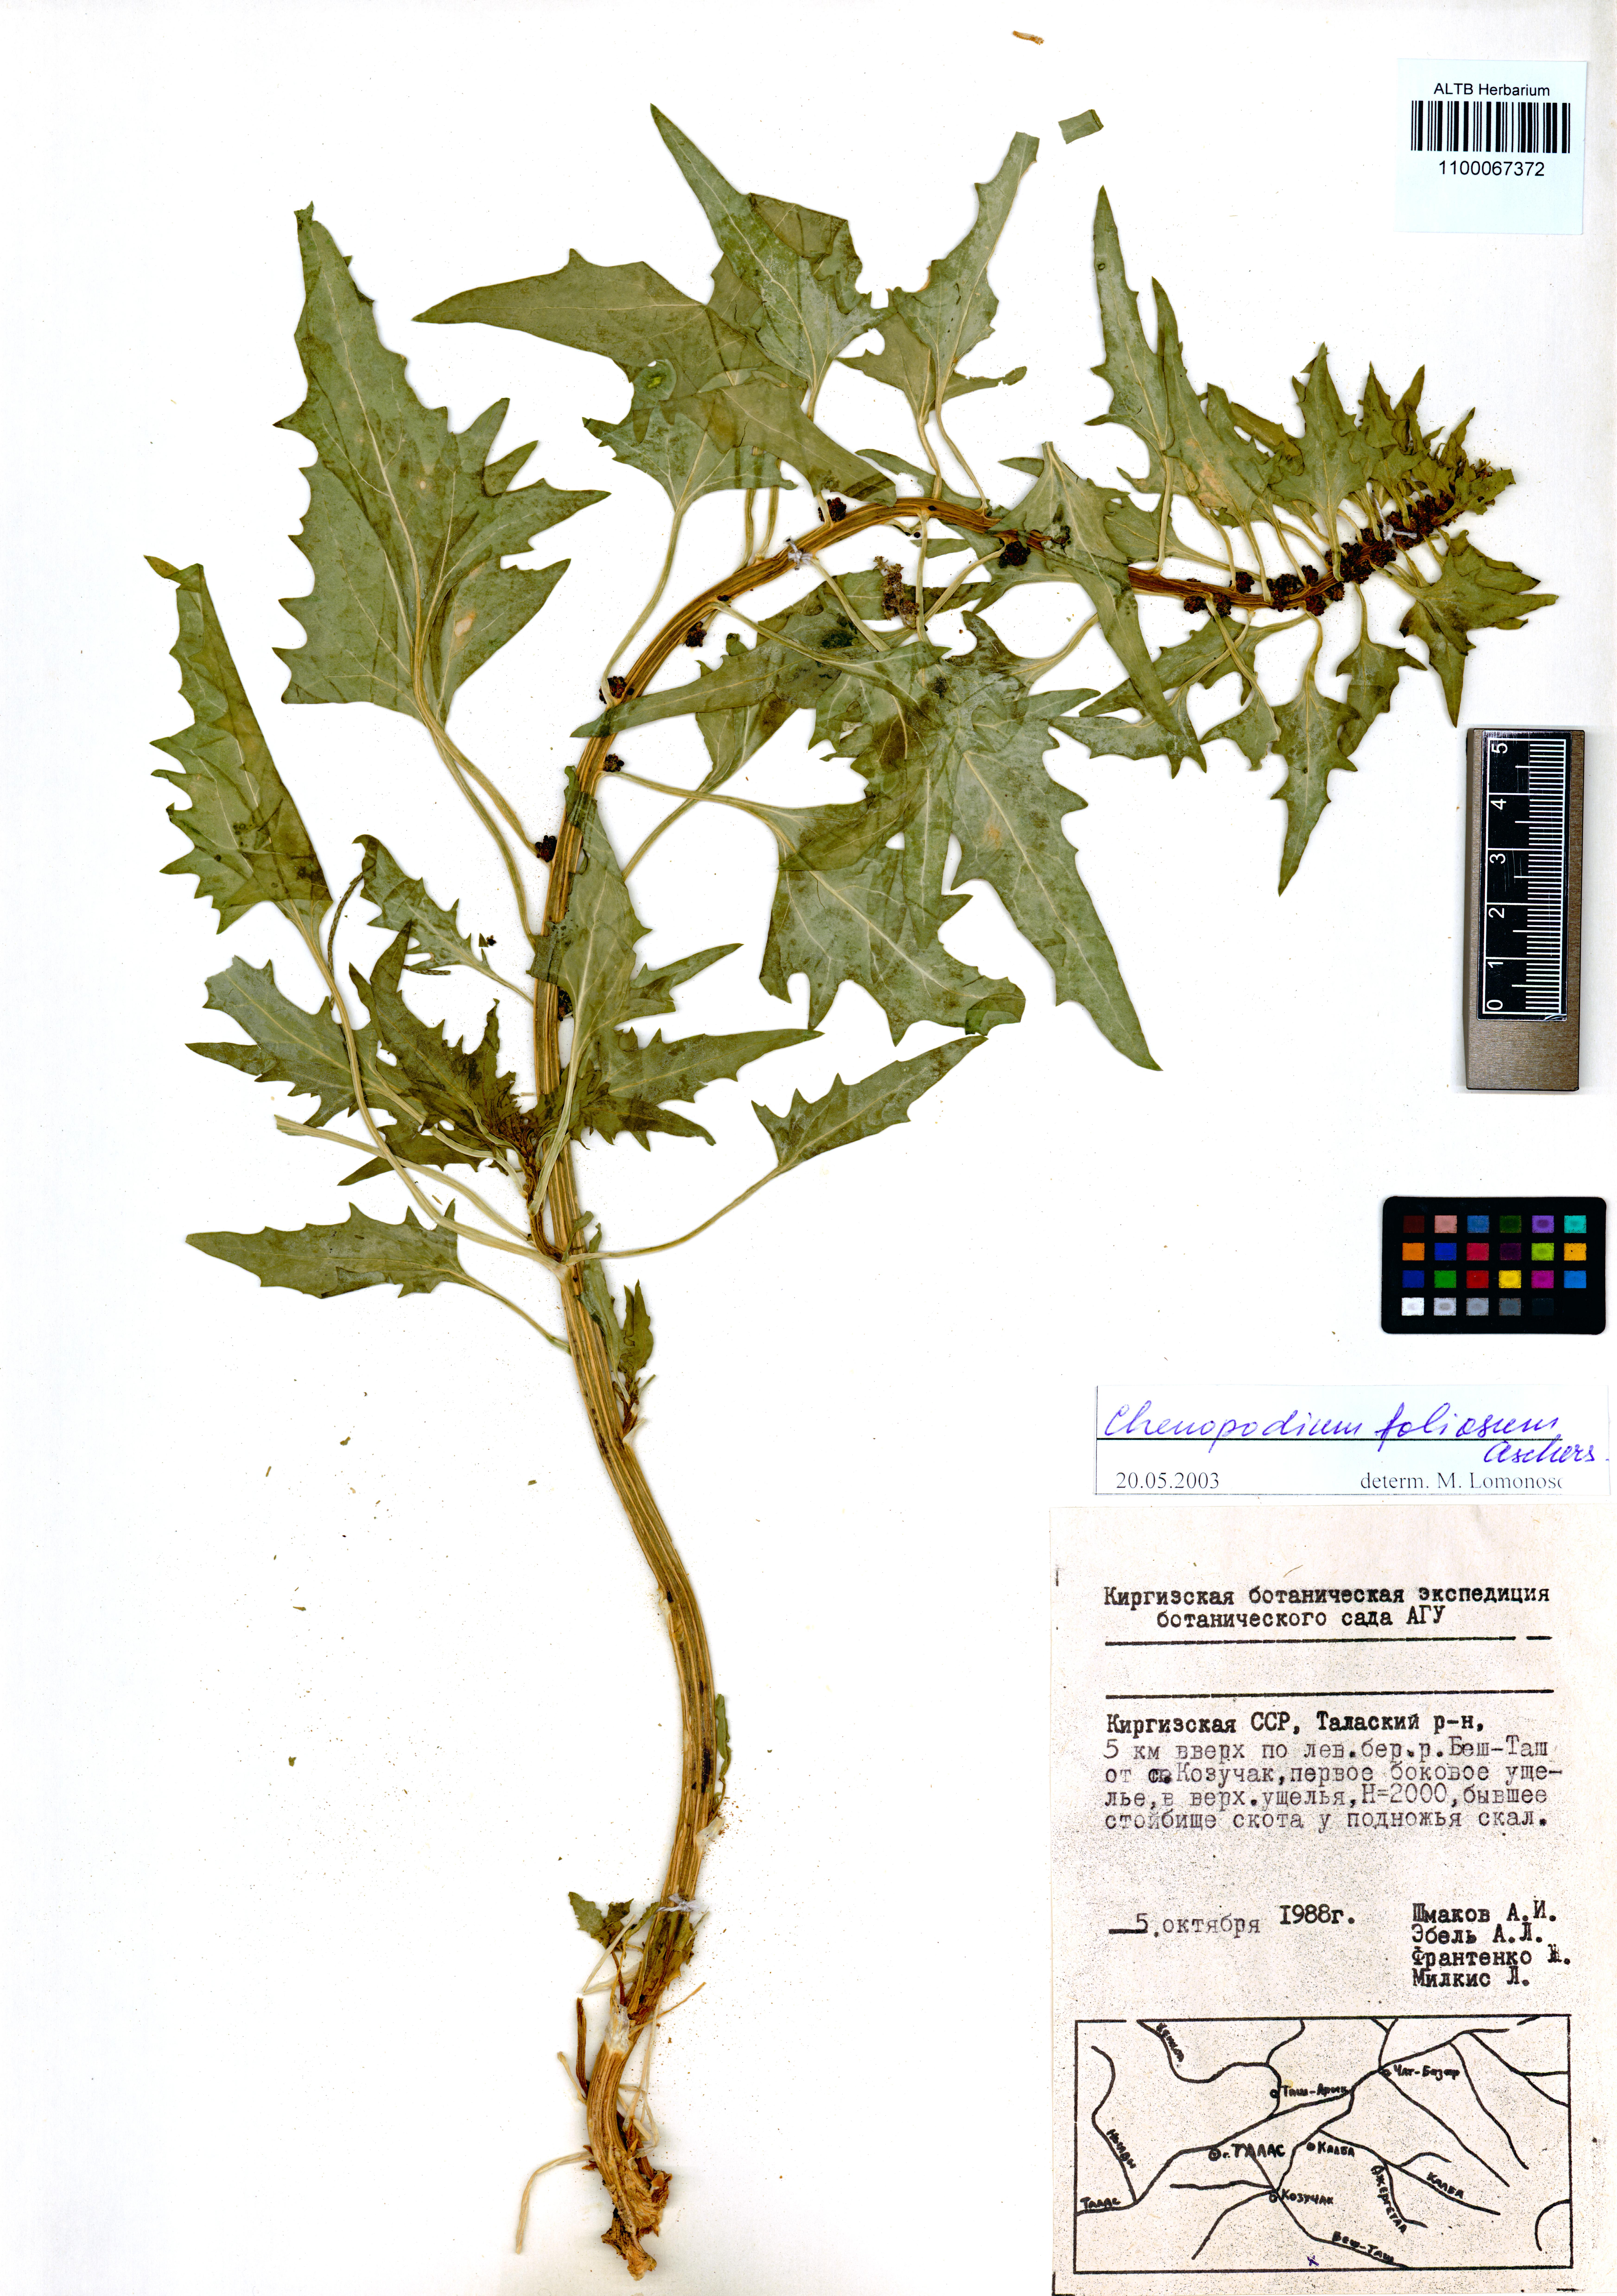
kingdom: Plantae
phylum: Tracheophyta
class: Magnoliopsida
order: Caryophyllales
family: Amaranthaceae
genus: Blitum
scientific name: Blitum virgatum
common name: Strawberry goosefoot
